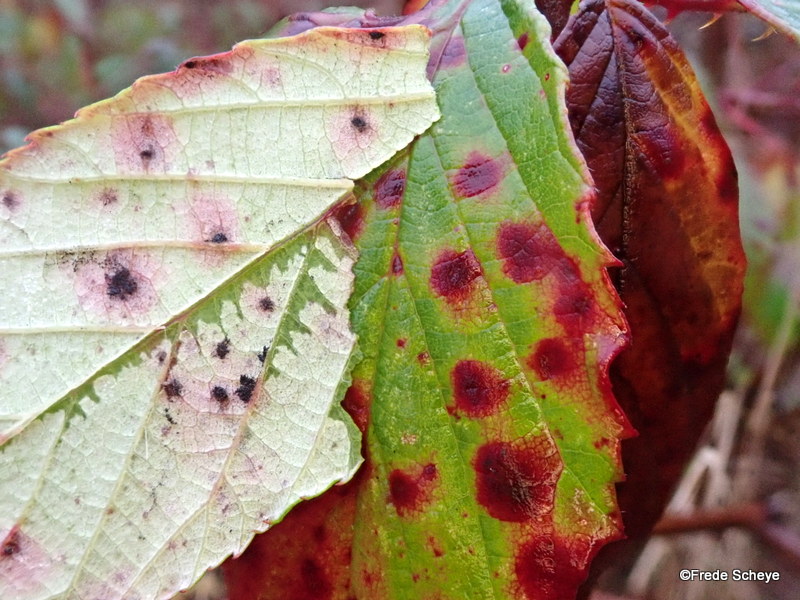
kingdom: Fungi
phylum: Basidiomycota
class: Pucciniomycetes
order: Pucciniales
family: Phragmidiaceae
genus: Phragmidium
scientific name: Phragmidium violaceum
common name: violet flercellerust
